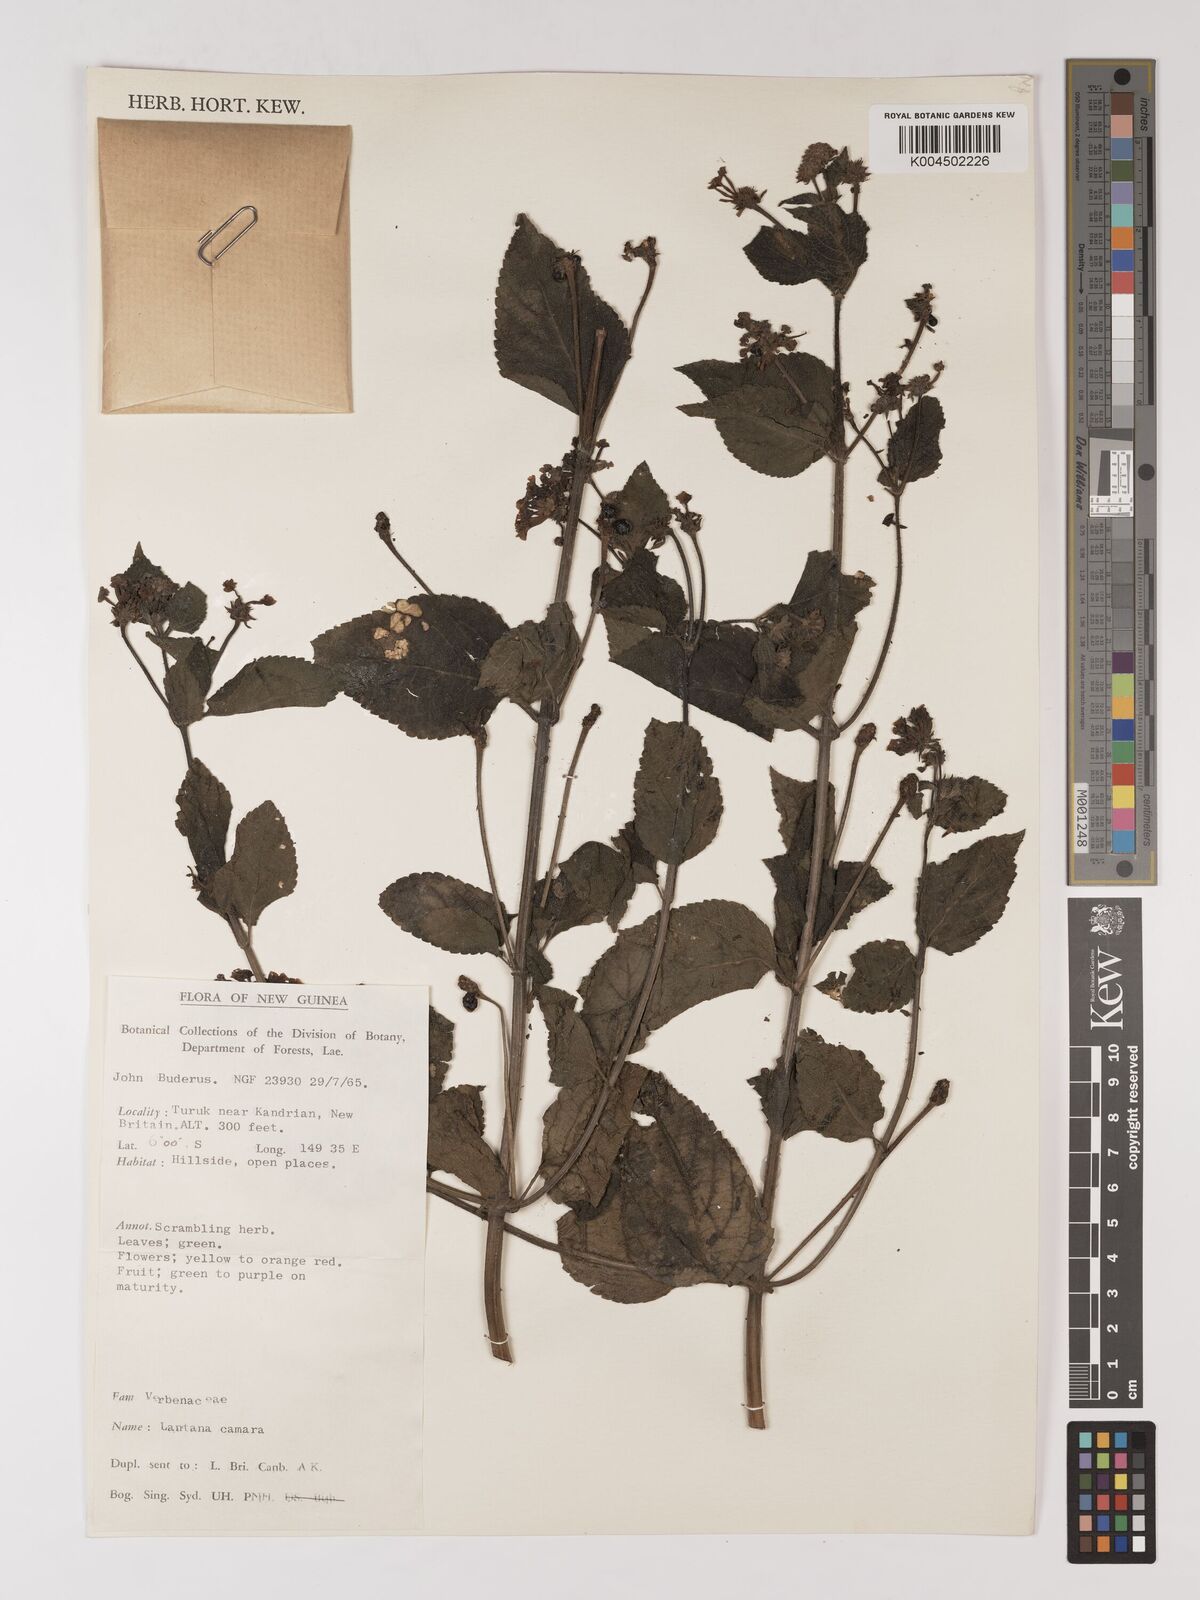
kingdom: Plantae
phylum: Tracheophyta
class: Magnoliopsida
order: Lamiales
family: Verbenaceae
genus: Lantana
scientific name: Lantana camara
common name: Lantana
